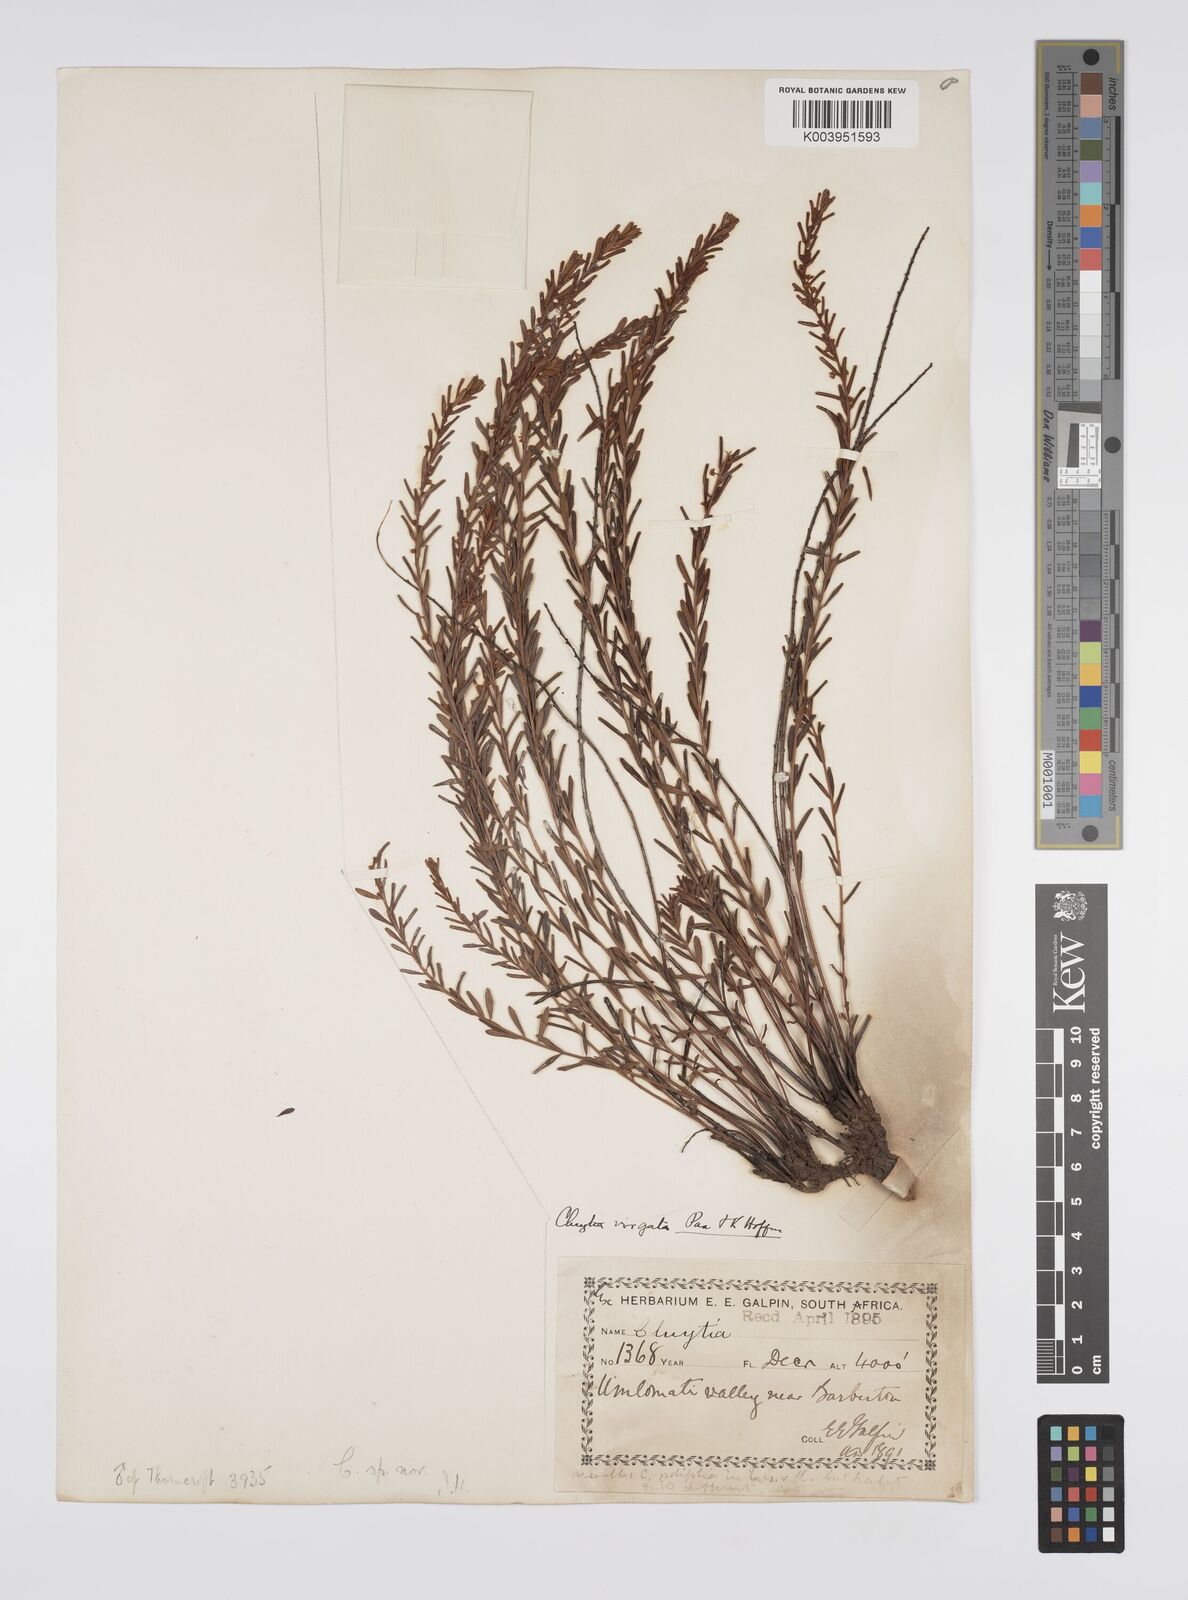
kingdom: Plantae
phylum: Tracheophyta
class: Magnoliopsida
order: Malpighiales
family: Peraceae
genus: Clutia
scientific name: Clutia virgata
